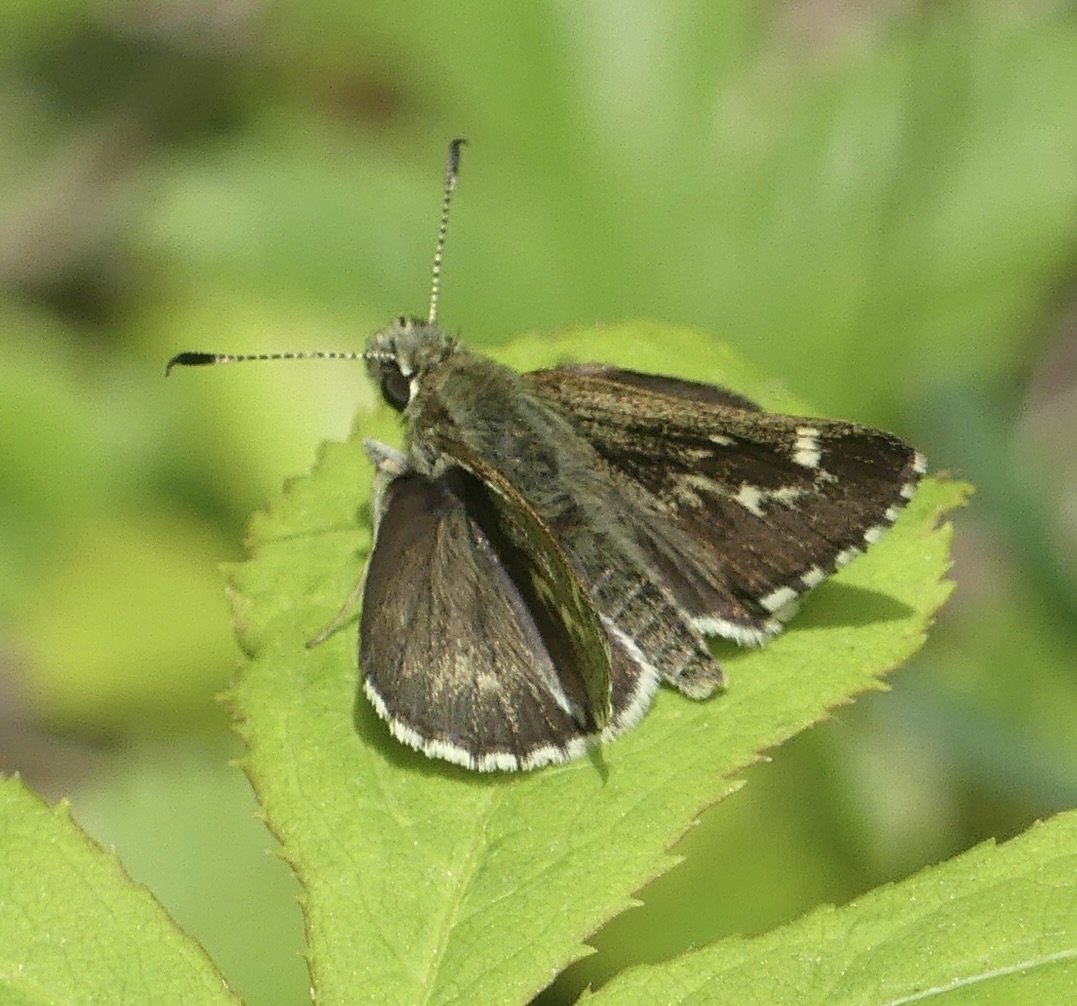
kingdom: Animalia
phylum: Arthropoda
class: Insecta
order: Lepidoptera
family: Hesperiidae
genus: Mastor
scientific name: Mastor hegon
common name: Pepper and Salt Skipper
